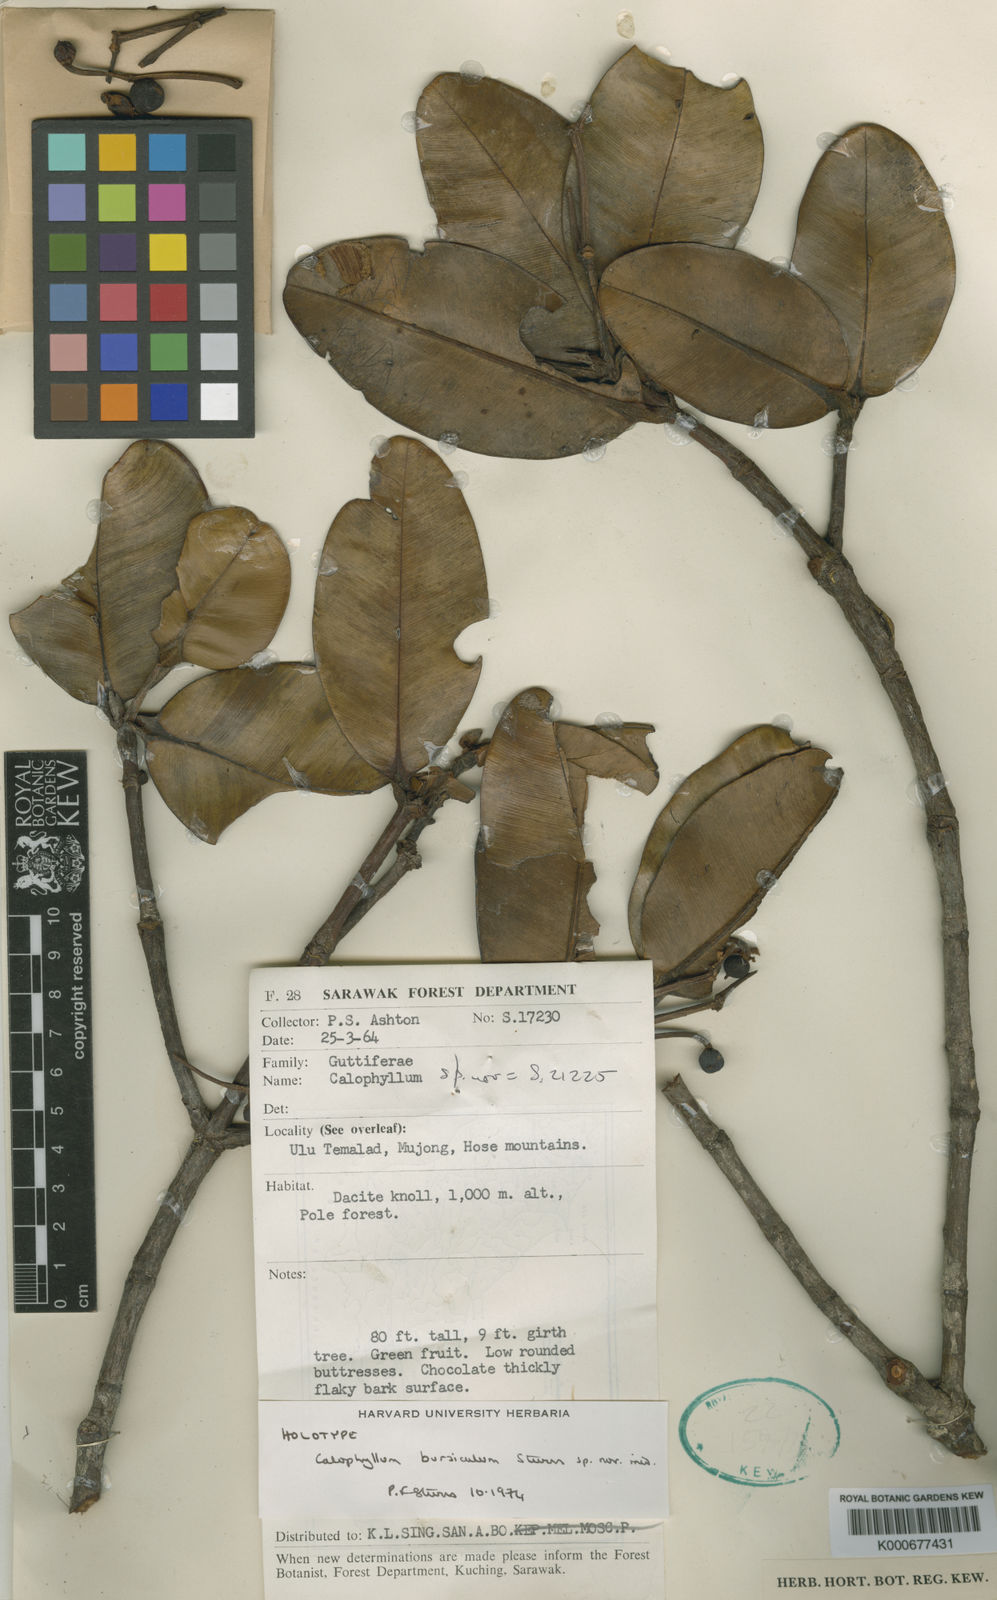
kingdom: Plantae
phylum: Tracheophyta
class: Magnoliopsida
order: Malpighiales
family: Calophyllaceae
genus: Calophyllum
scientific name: Calophyllum teysmannii
